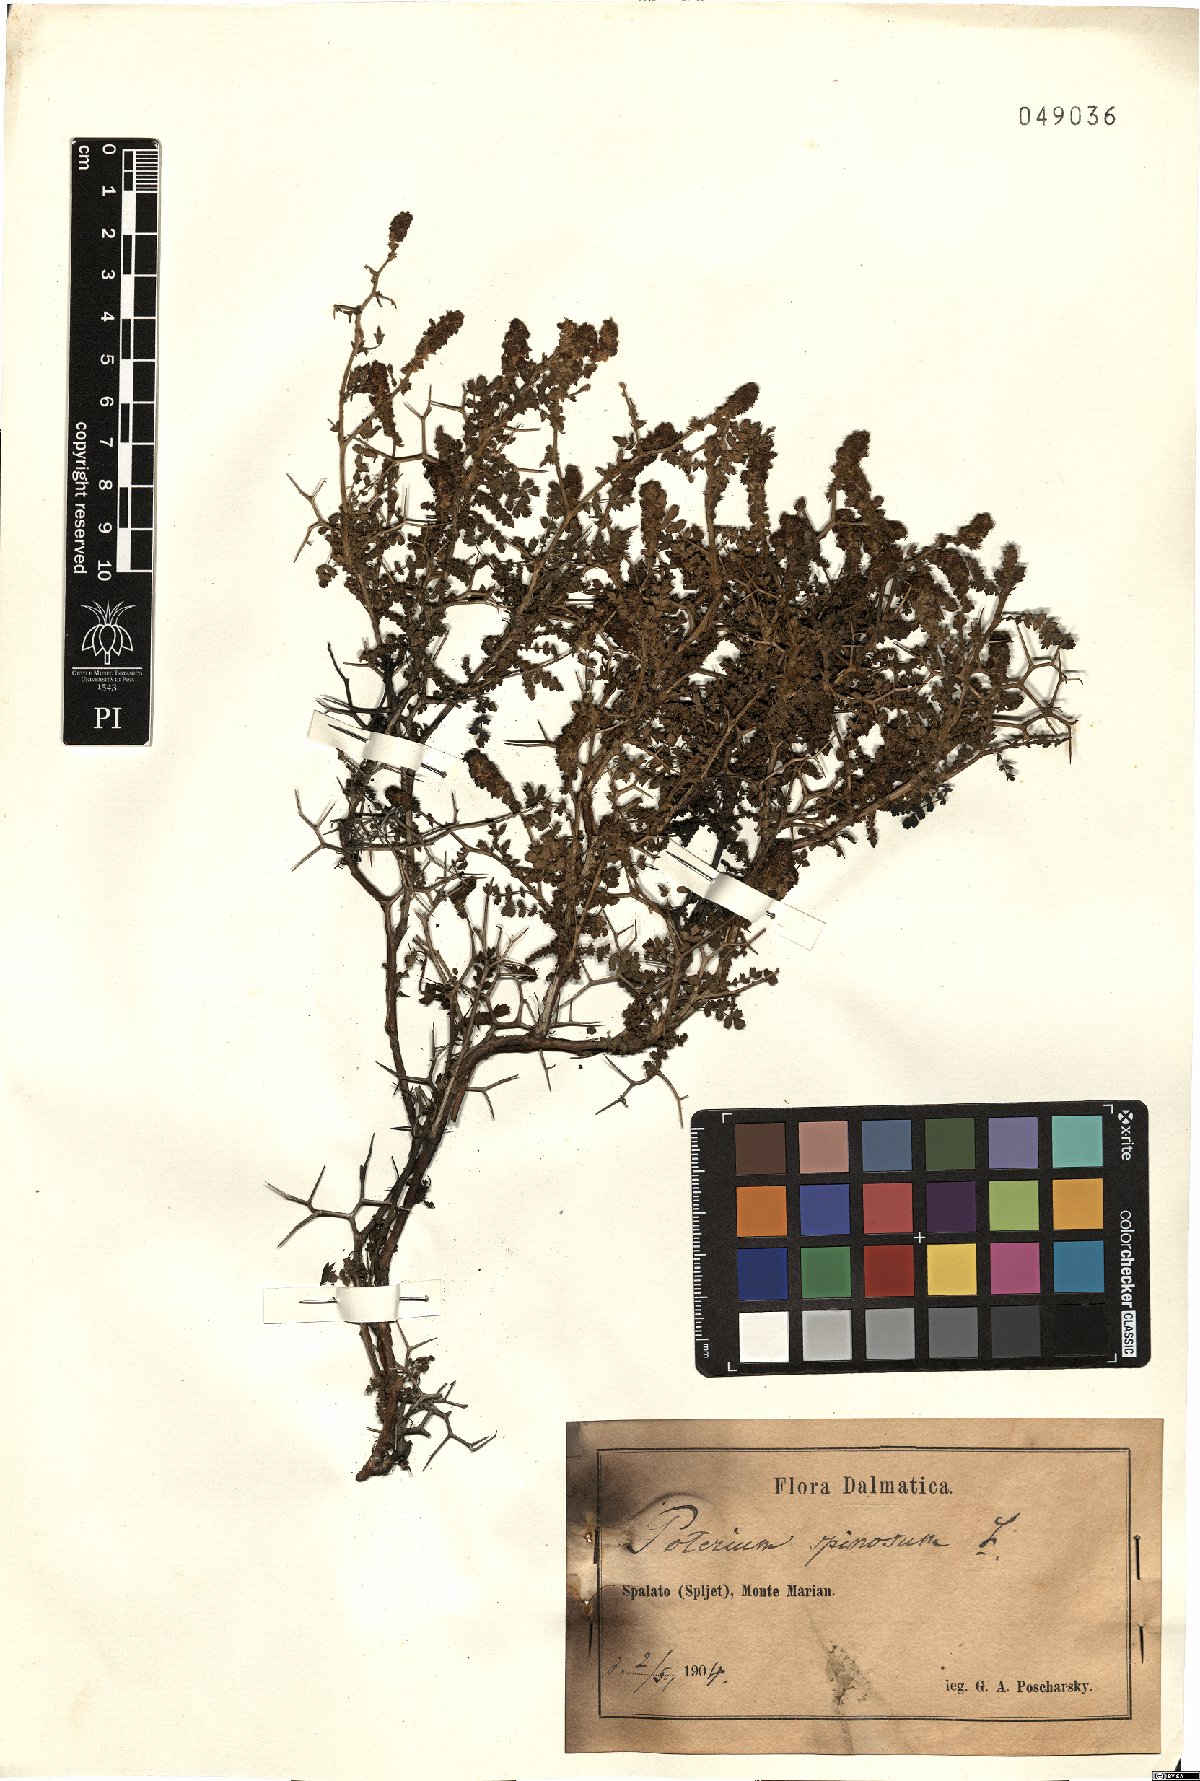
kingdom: Plantae
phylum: Tracheophyta
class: Magnoliopsida
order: Rosales
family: Rosaceae
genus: Sarcopoterium
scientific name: Sarcopoterium spinosum
